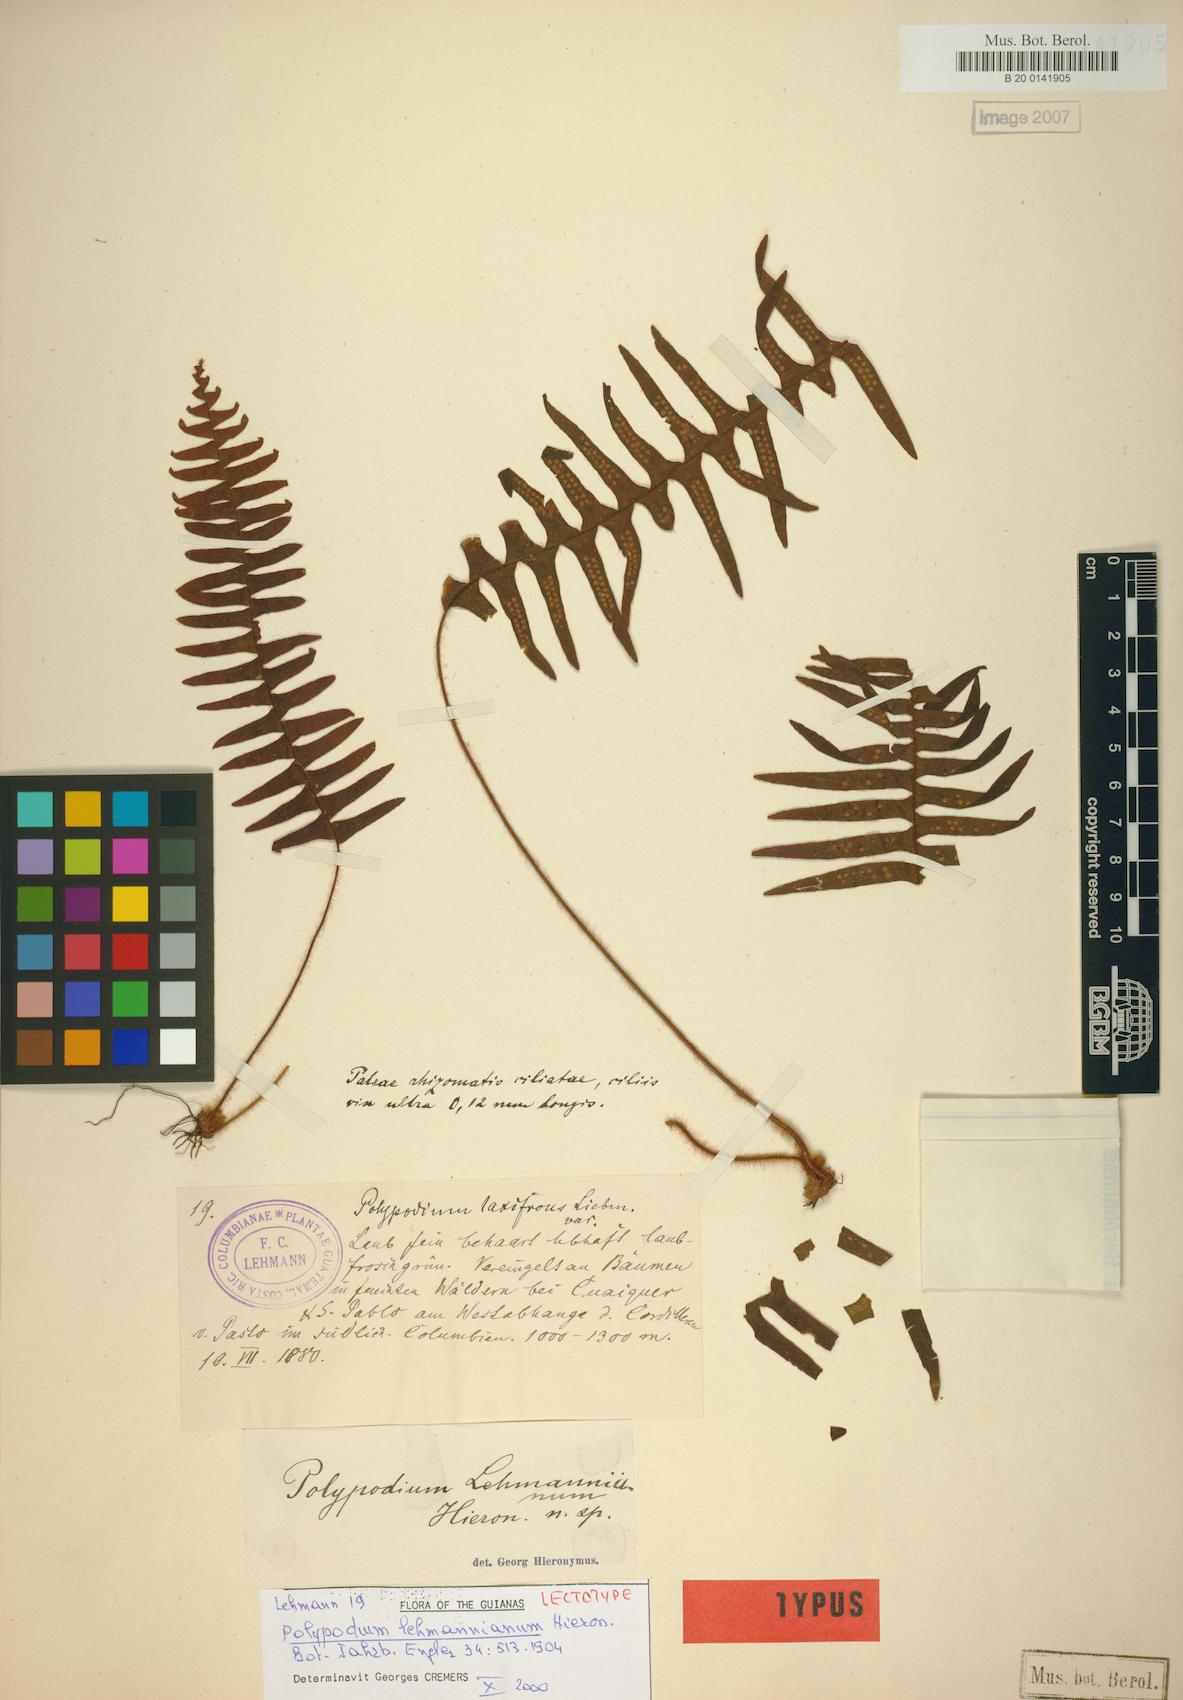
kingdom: Plantae
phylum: Tracheophyta
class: Polypodiopsida
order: Polypodiales
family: Polypodiaceae
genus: Terpsichore
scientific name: Terpsichore lehmanniana
